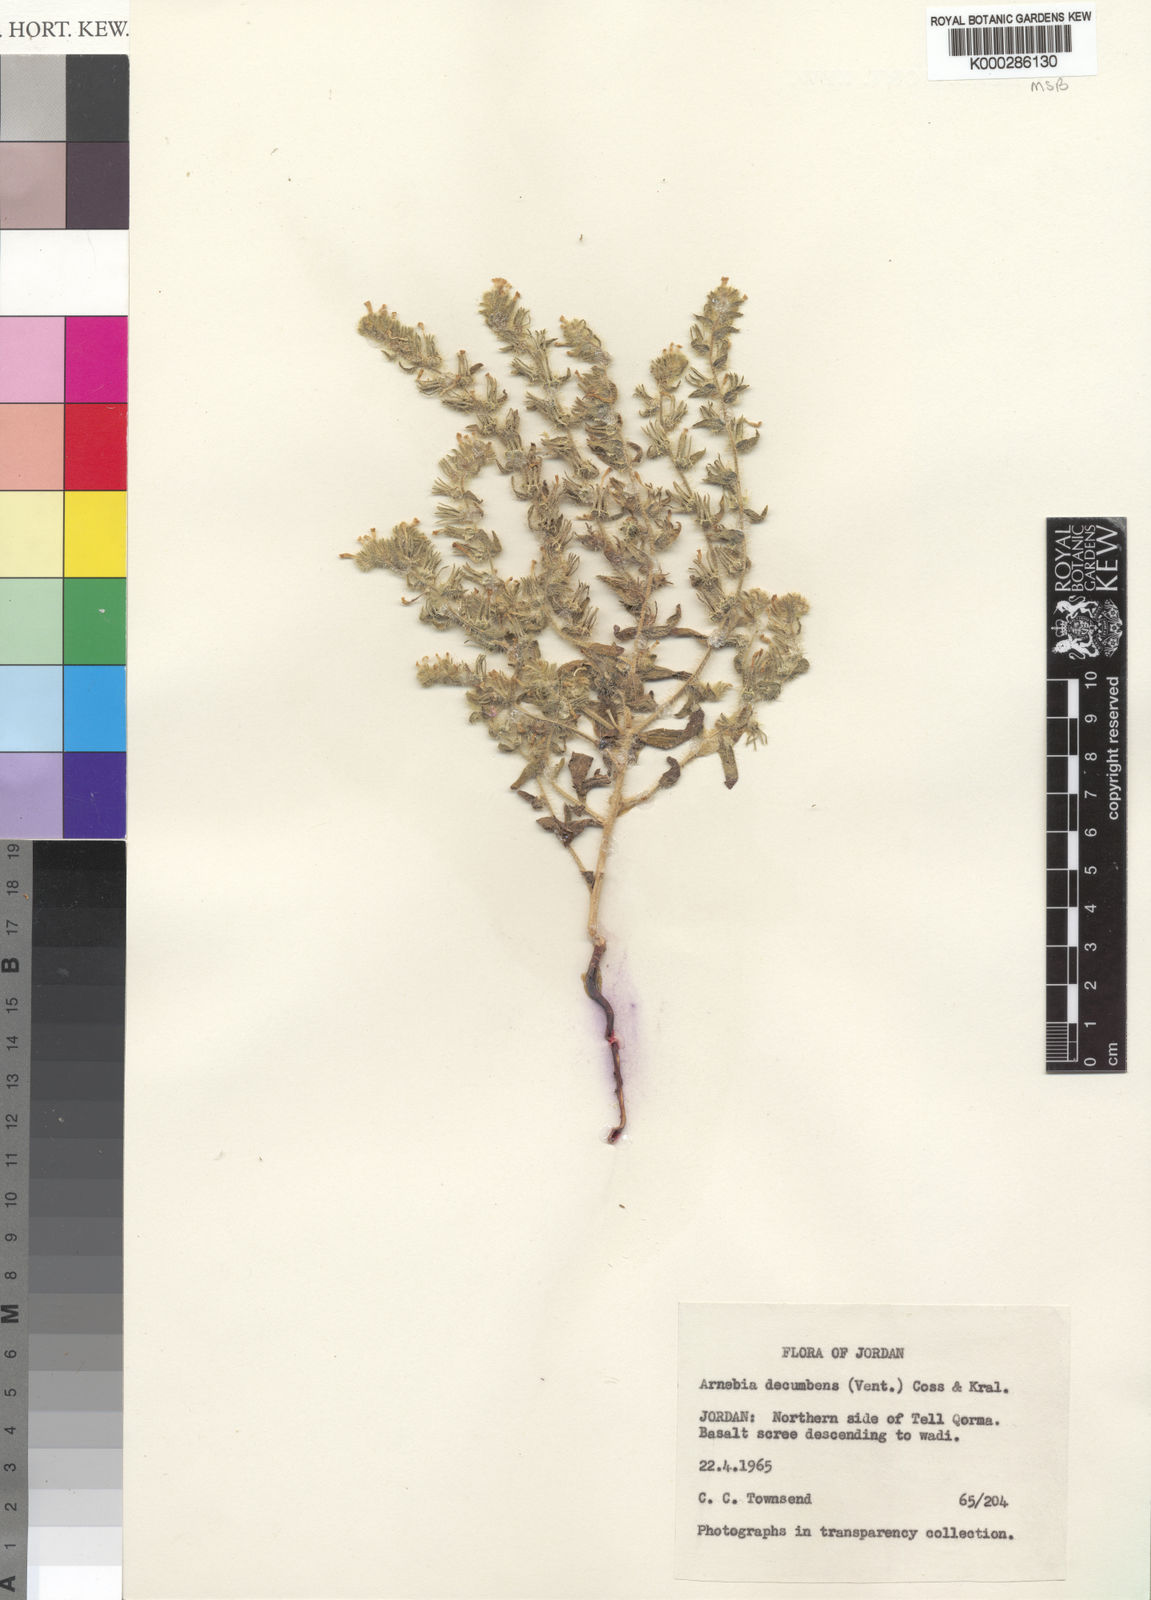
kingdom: Plantae
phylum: Tracheophyta
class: Magnoliopsida
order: Boraginales
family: Boraginaceae
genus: Arnebia
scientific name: Arnebia decumbens
